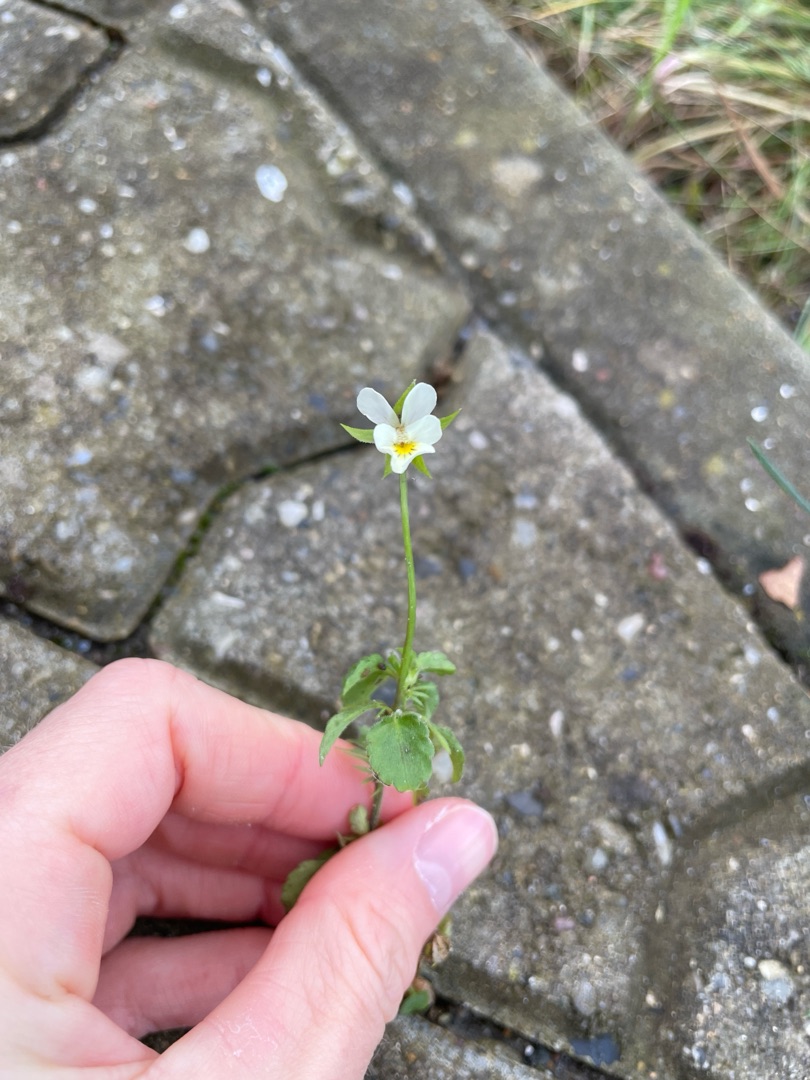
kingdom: Plantae
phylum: Tracheophyta
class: Magnoliopsida
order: Malpighiales
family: Violaceae
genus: Viola
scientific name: Viola arvensis
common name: Ager-stedmoderblomst
